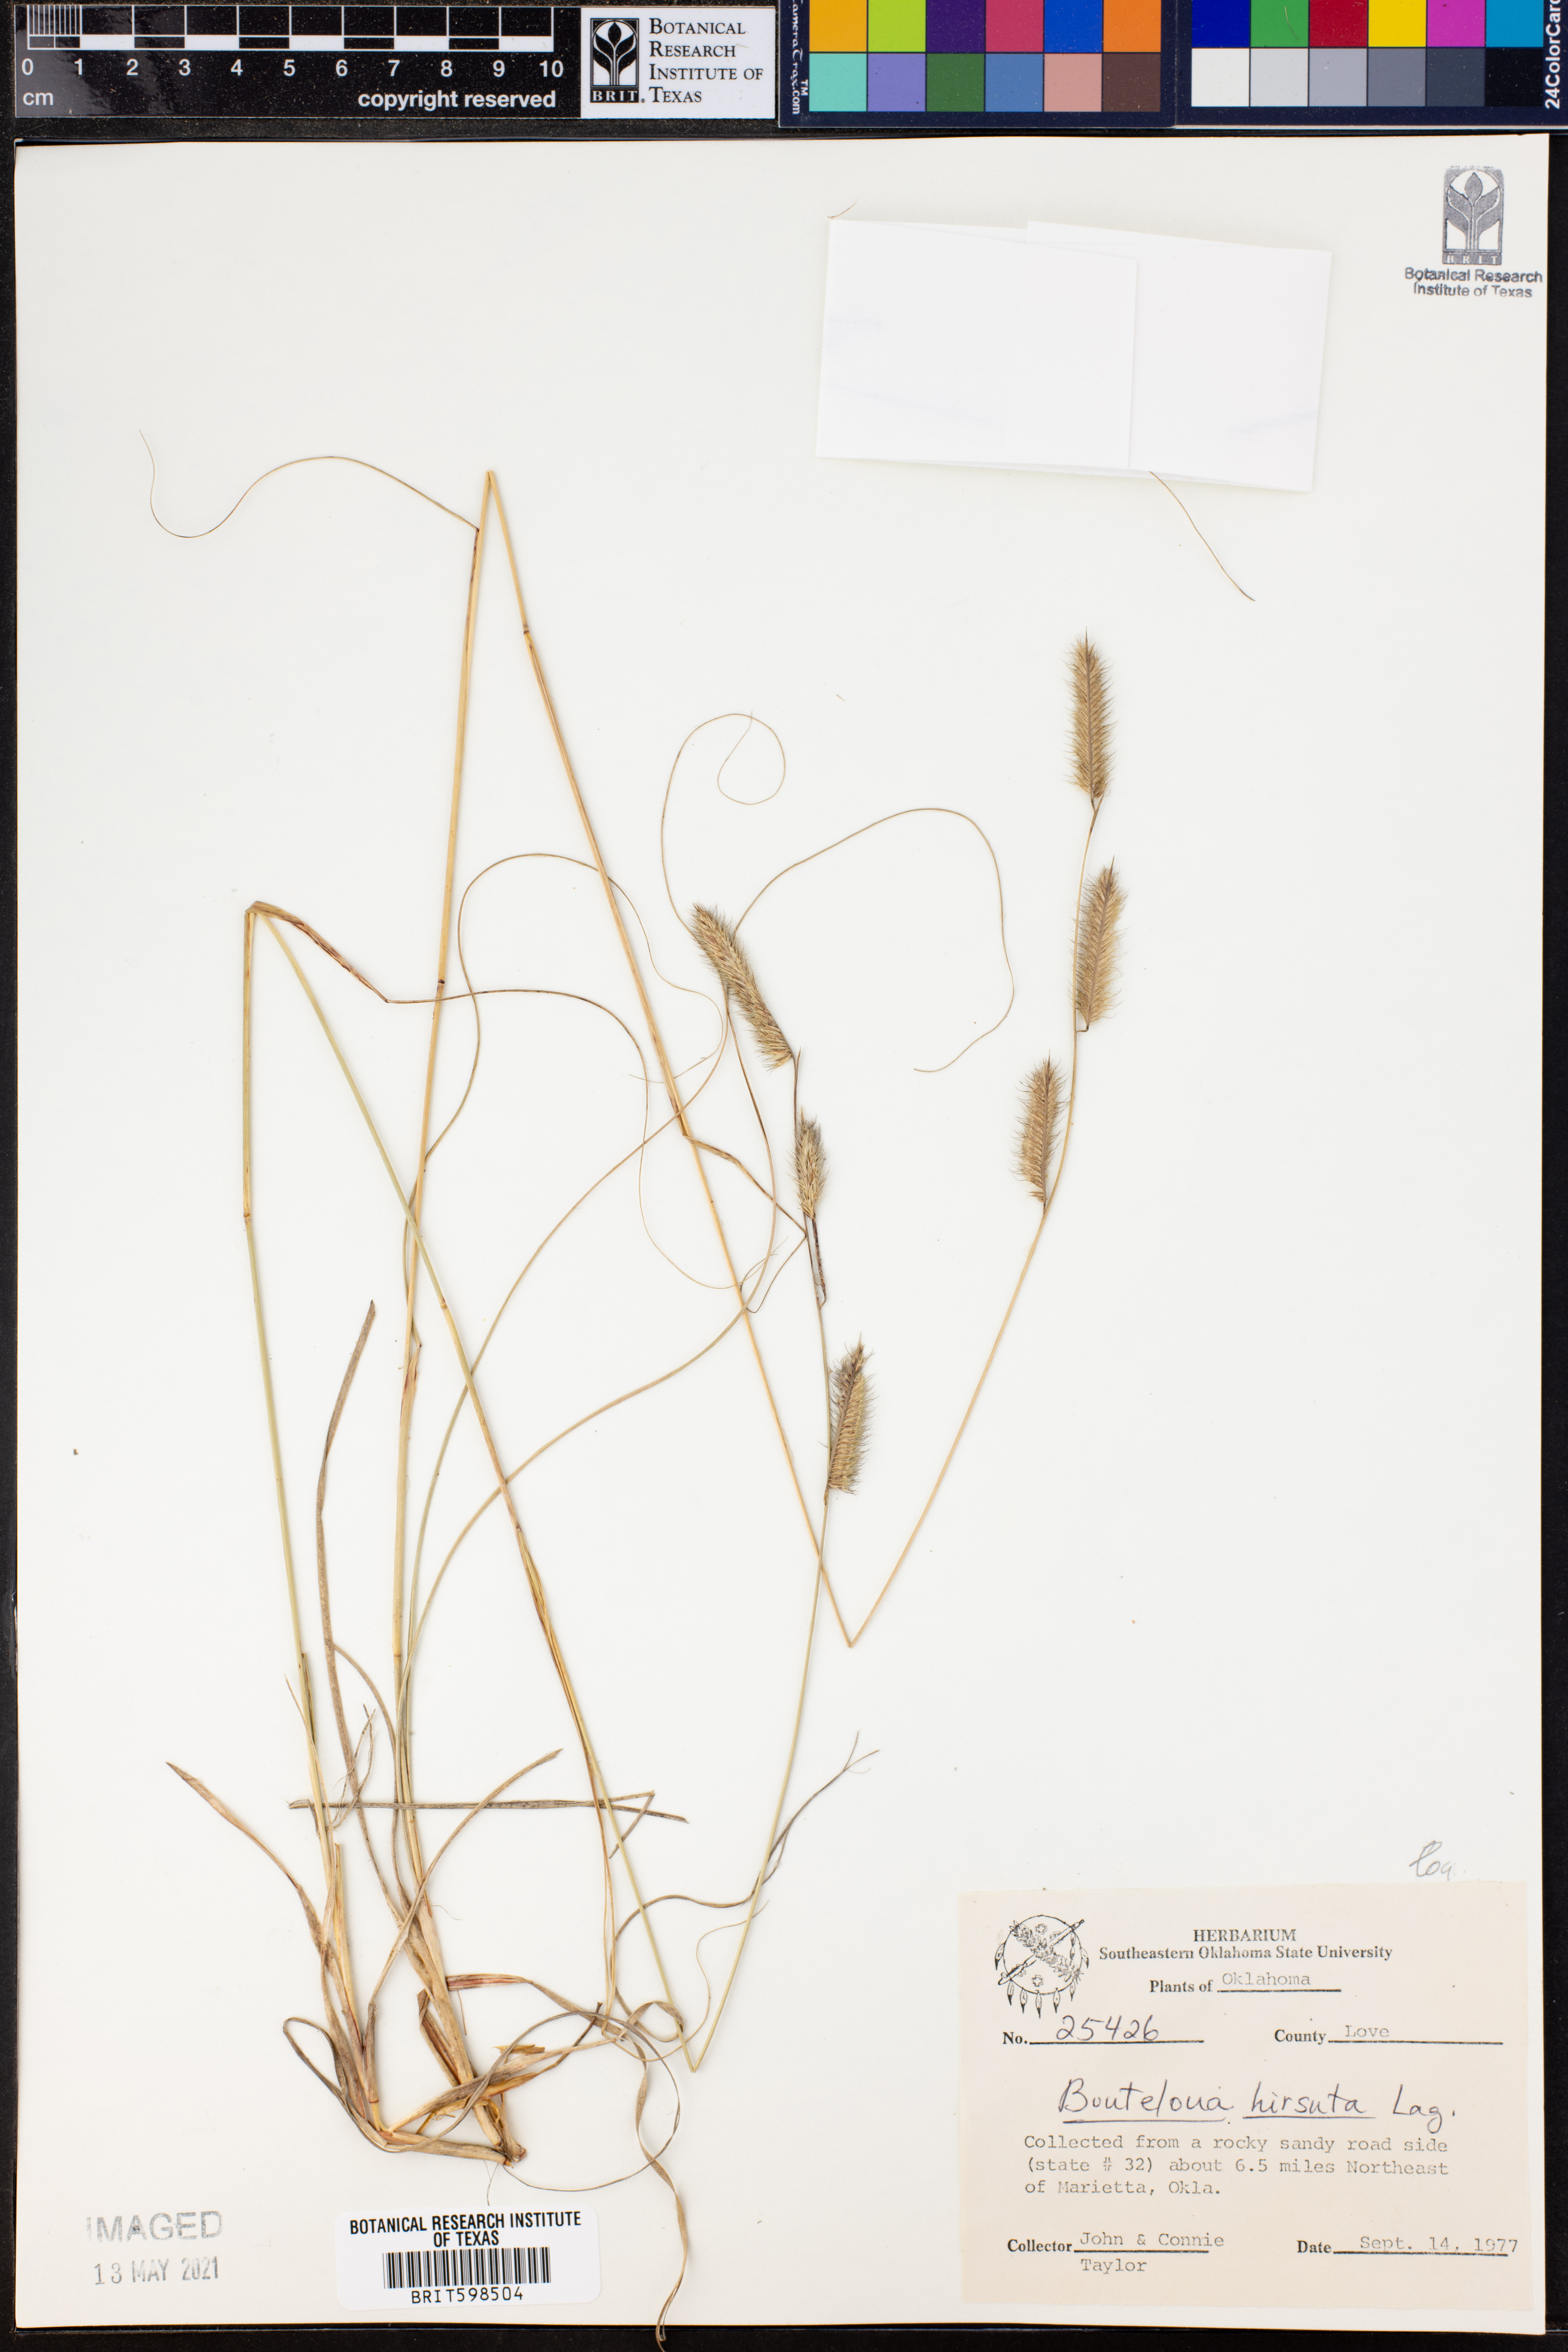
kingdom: Plantae
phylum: Tracheophyta
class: Liliopsida
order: Poales
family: Poaceae
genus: Bouteloua
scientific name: Bouteloua hirsuta
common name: Hairy grama
